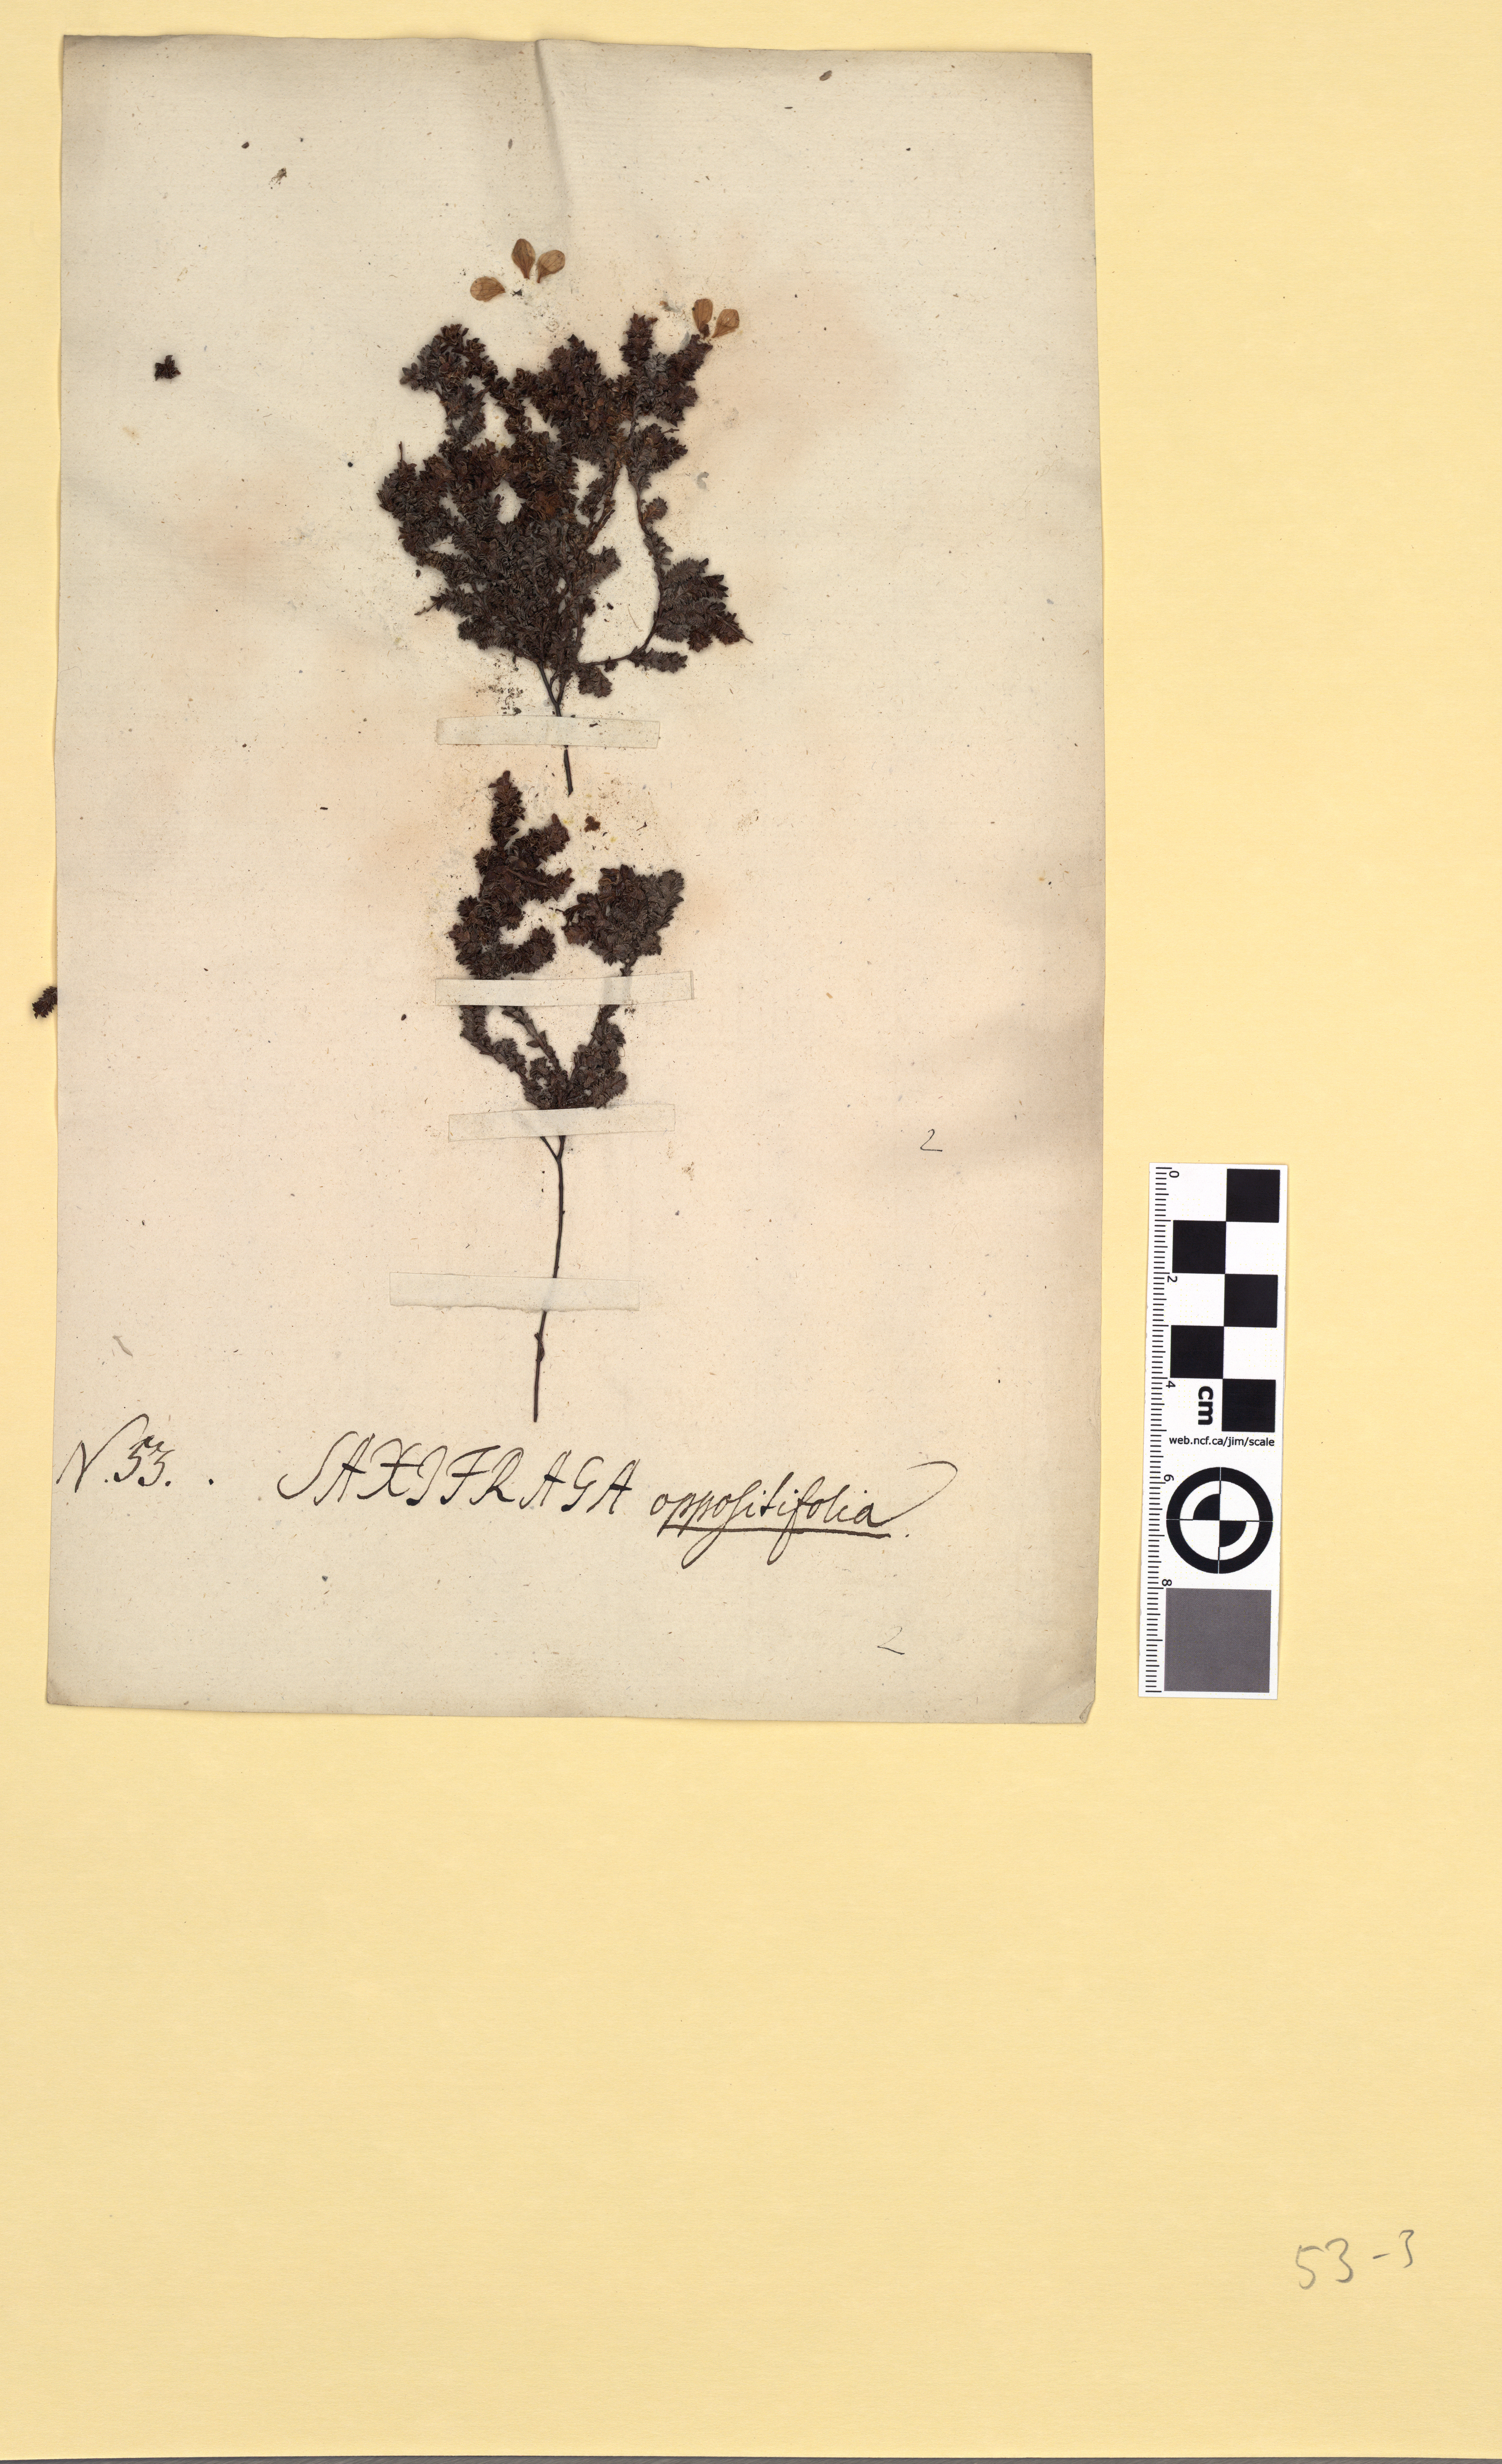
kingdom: Plantae
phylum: Tracheophyta
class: Magnoliopsida
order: Saxifragales
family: Saxifragaceae
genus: Saxifraga
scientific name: Saxifraga oppositifolia
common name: Purple saxifrage
